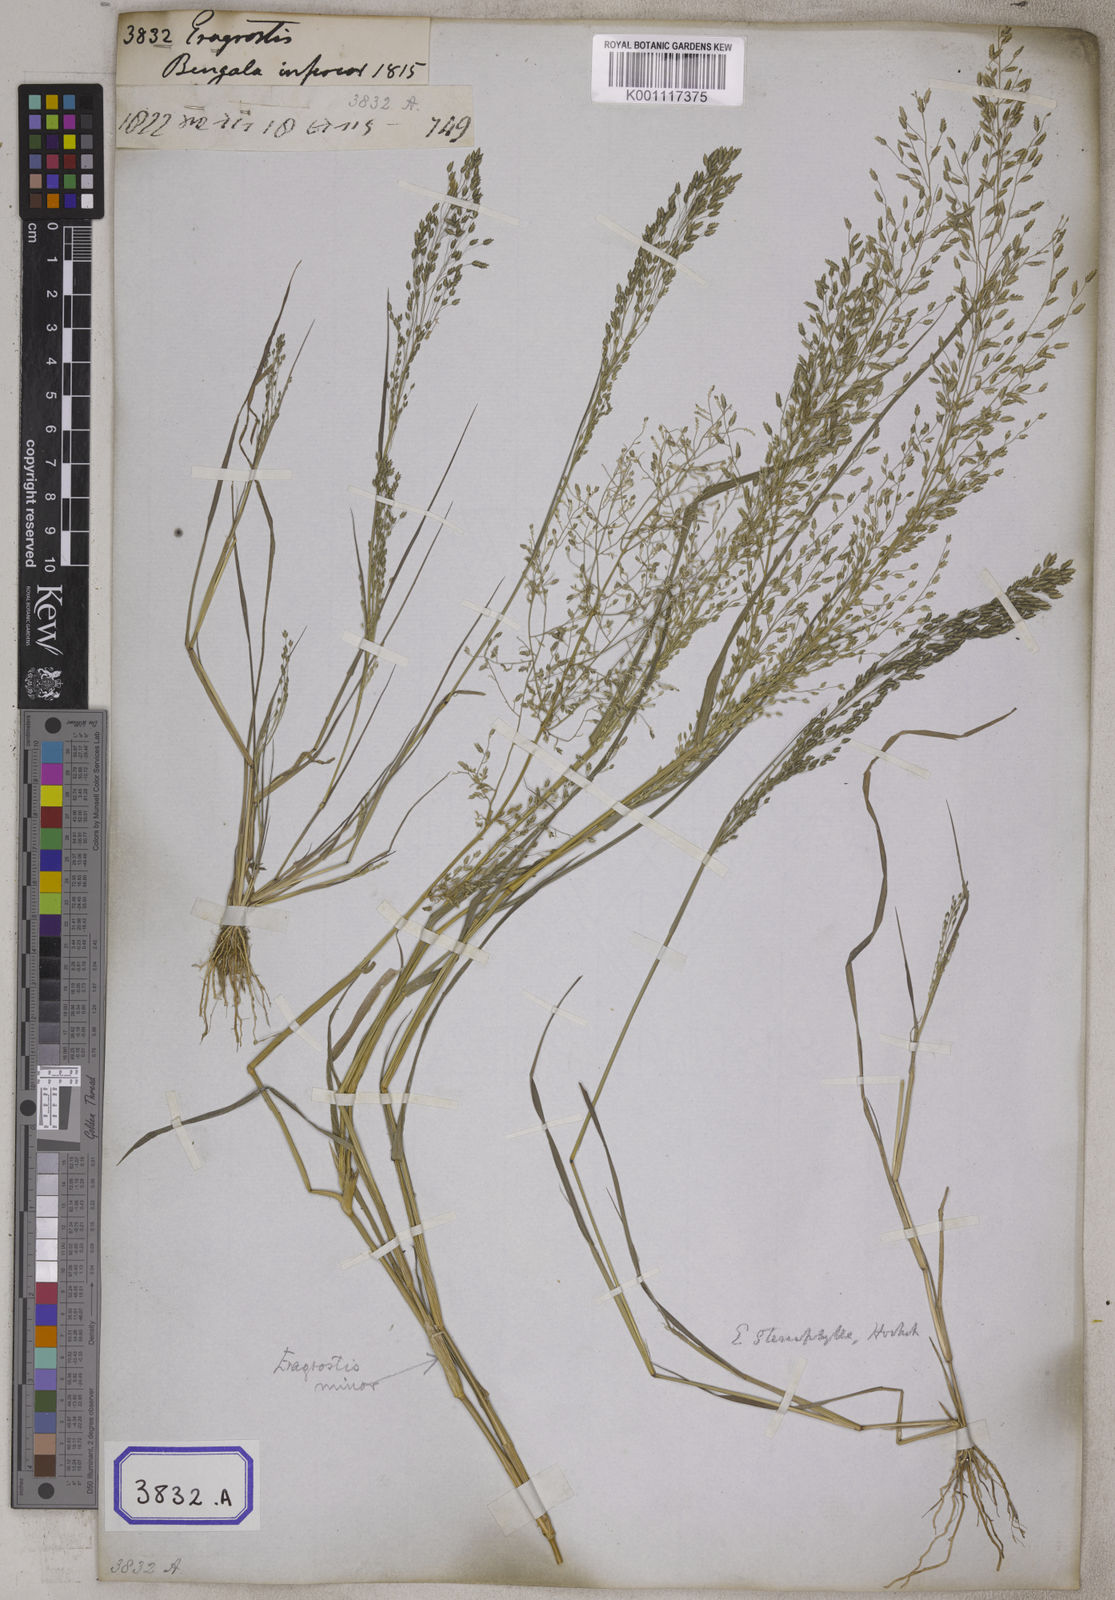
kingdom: Plantae
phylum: Tracheophyta
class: Liliopsida
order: Poales
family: Poaceae
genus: Eragrostis
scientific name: Eragrostis
